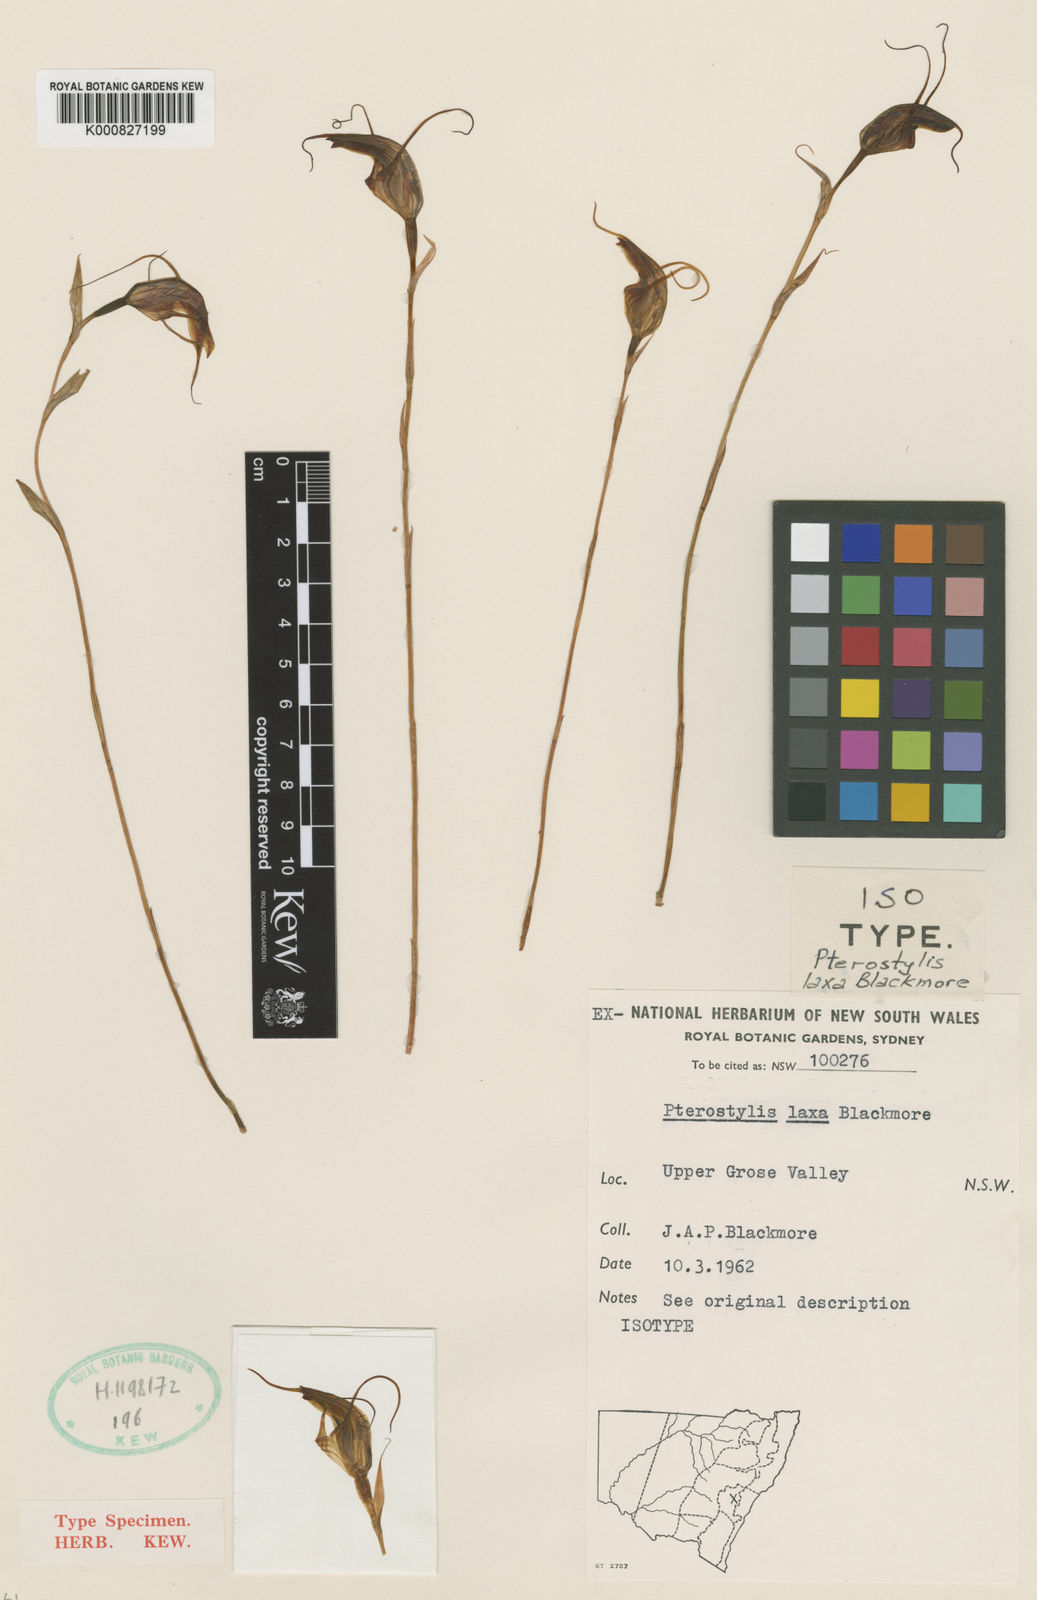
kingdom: Plantae
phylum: Tracheophyta
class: Liliopsida
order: Asparagales
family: Orchidaceae
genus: Pterostylis
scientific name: Pterostylis laxa
